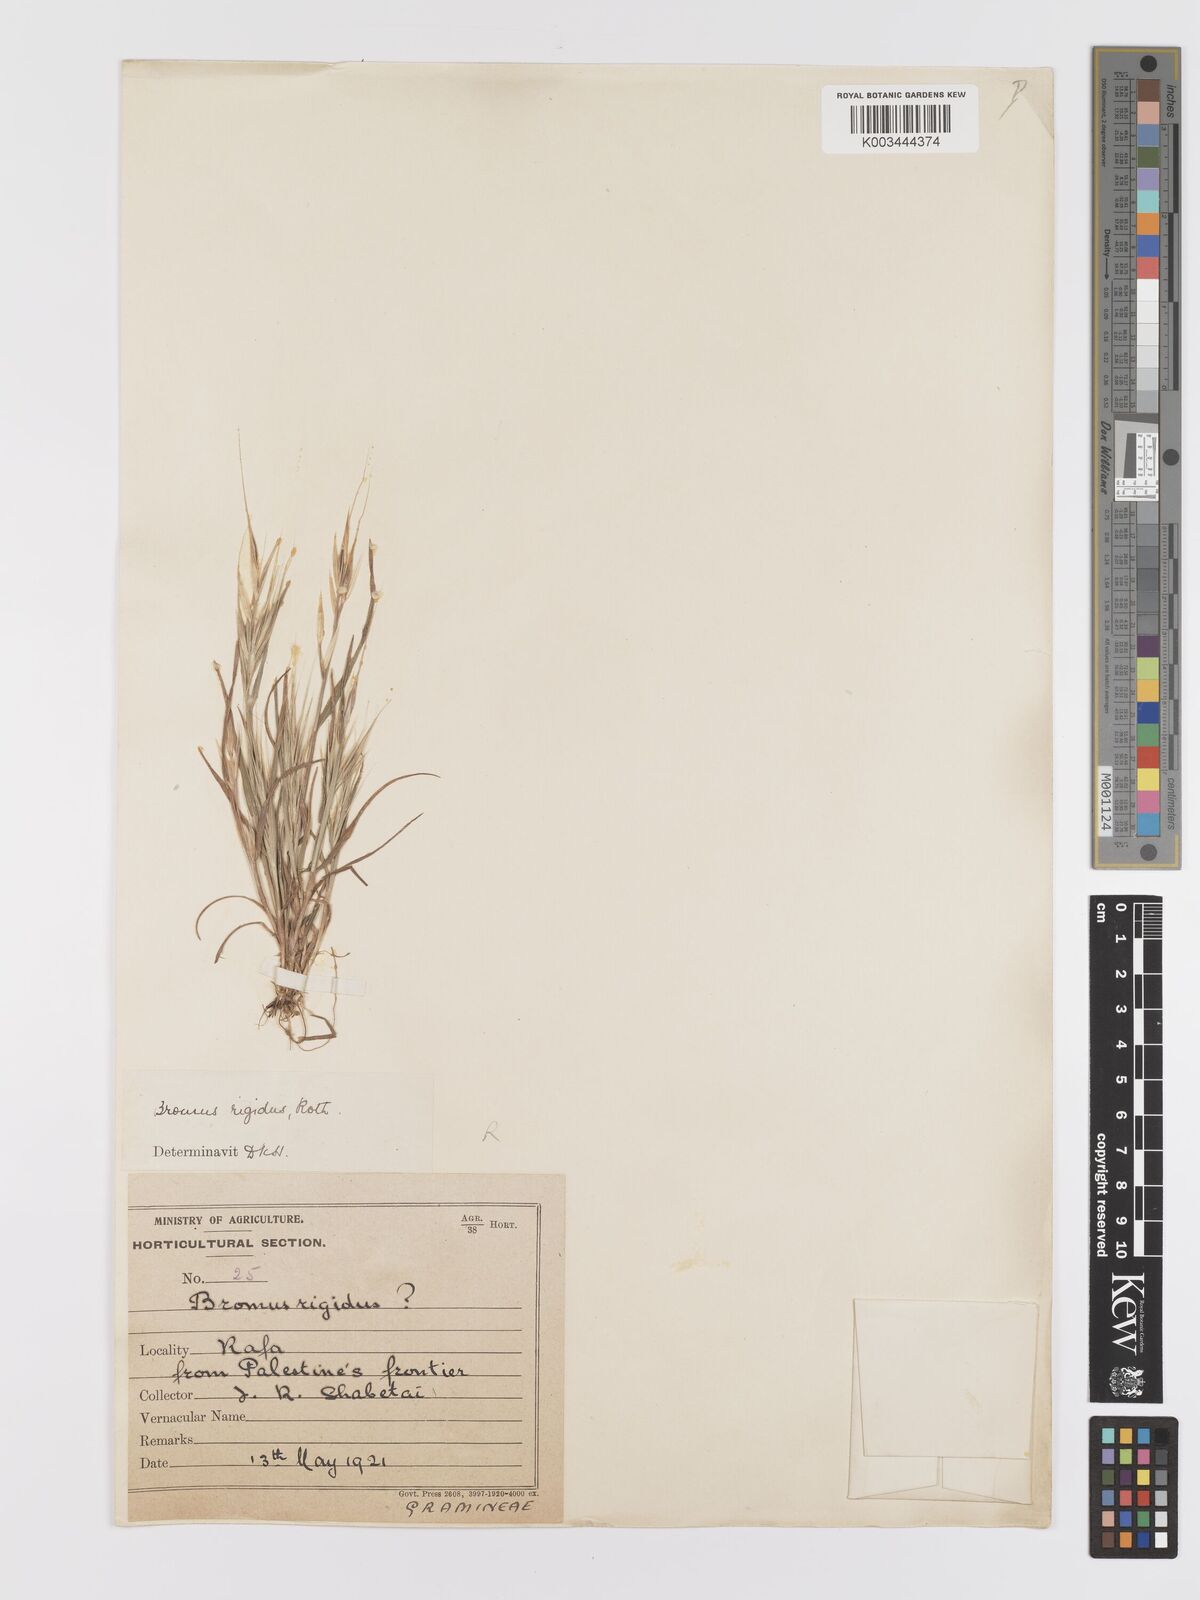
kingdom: Plantae
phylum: Tracheophyta
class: Liliopsida
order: Poales
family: Poaceae
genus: Bromus
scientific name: Bromus
